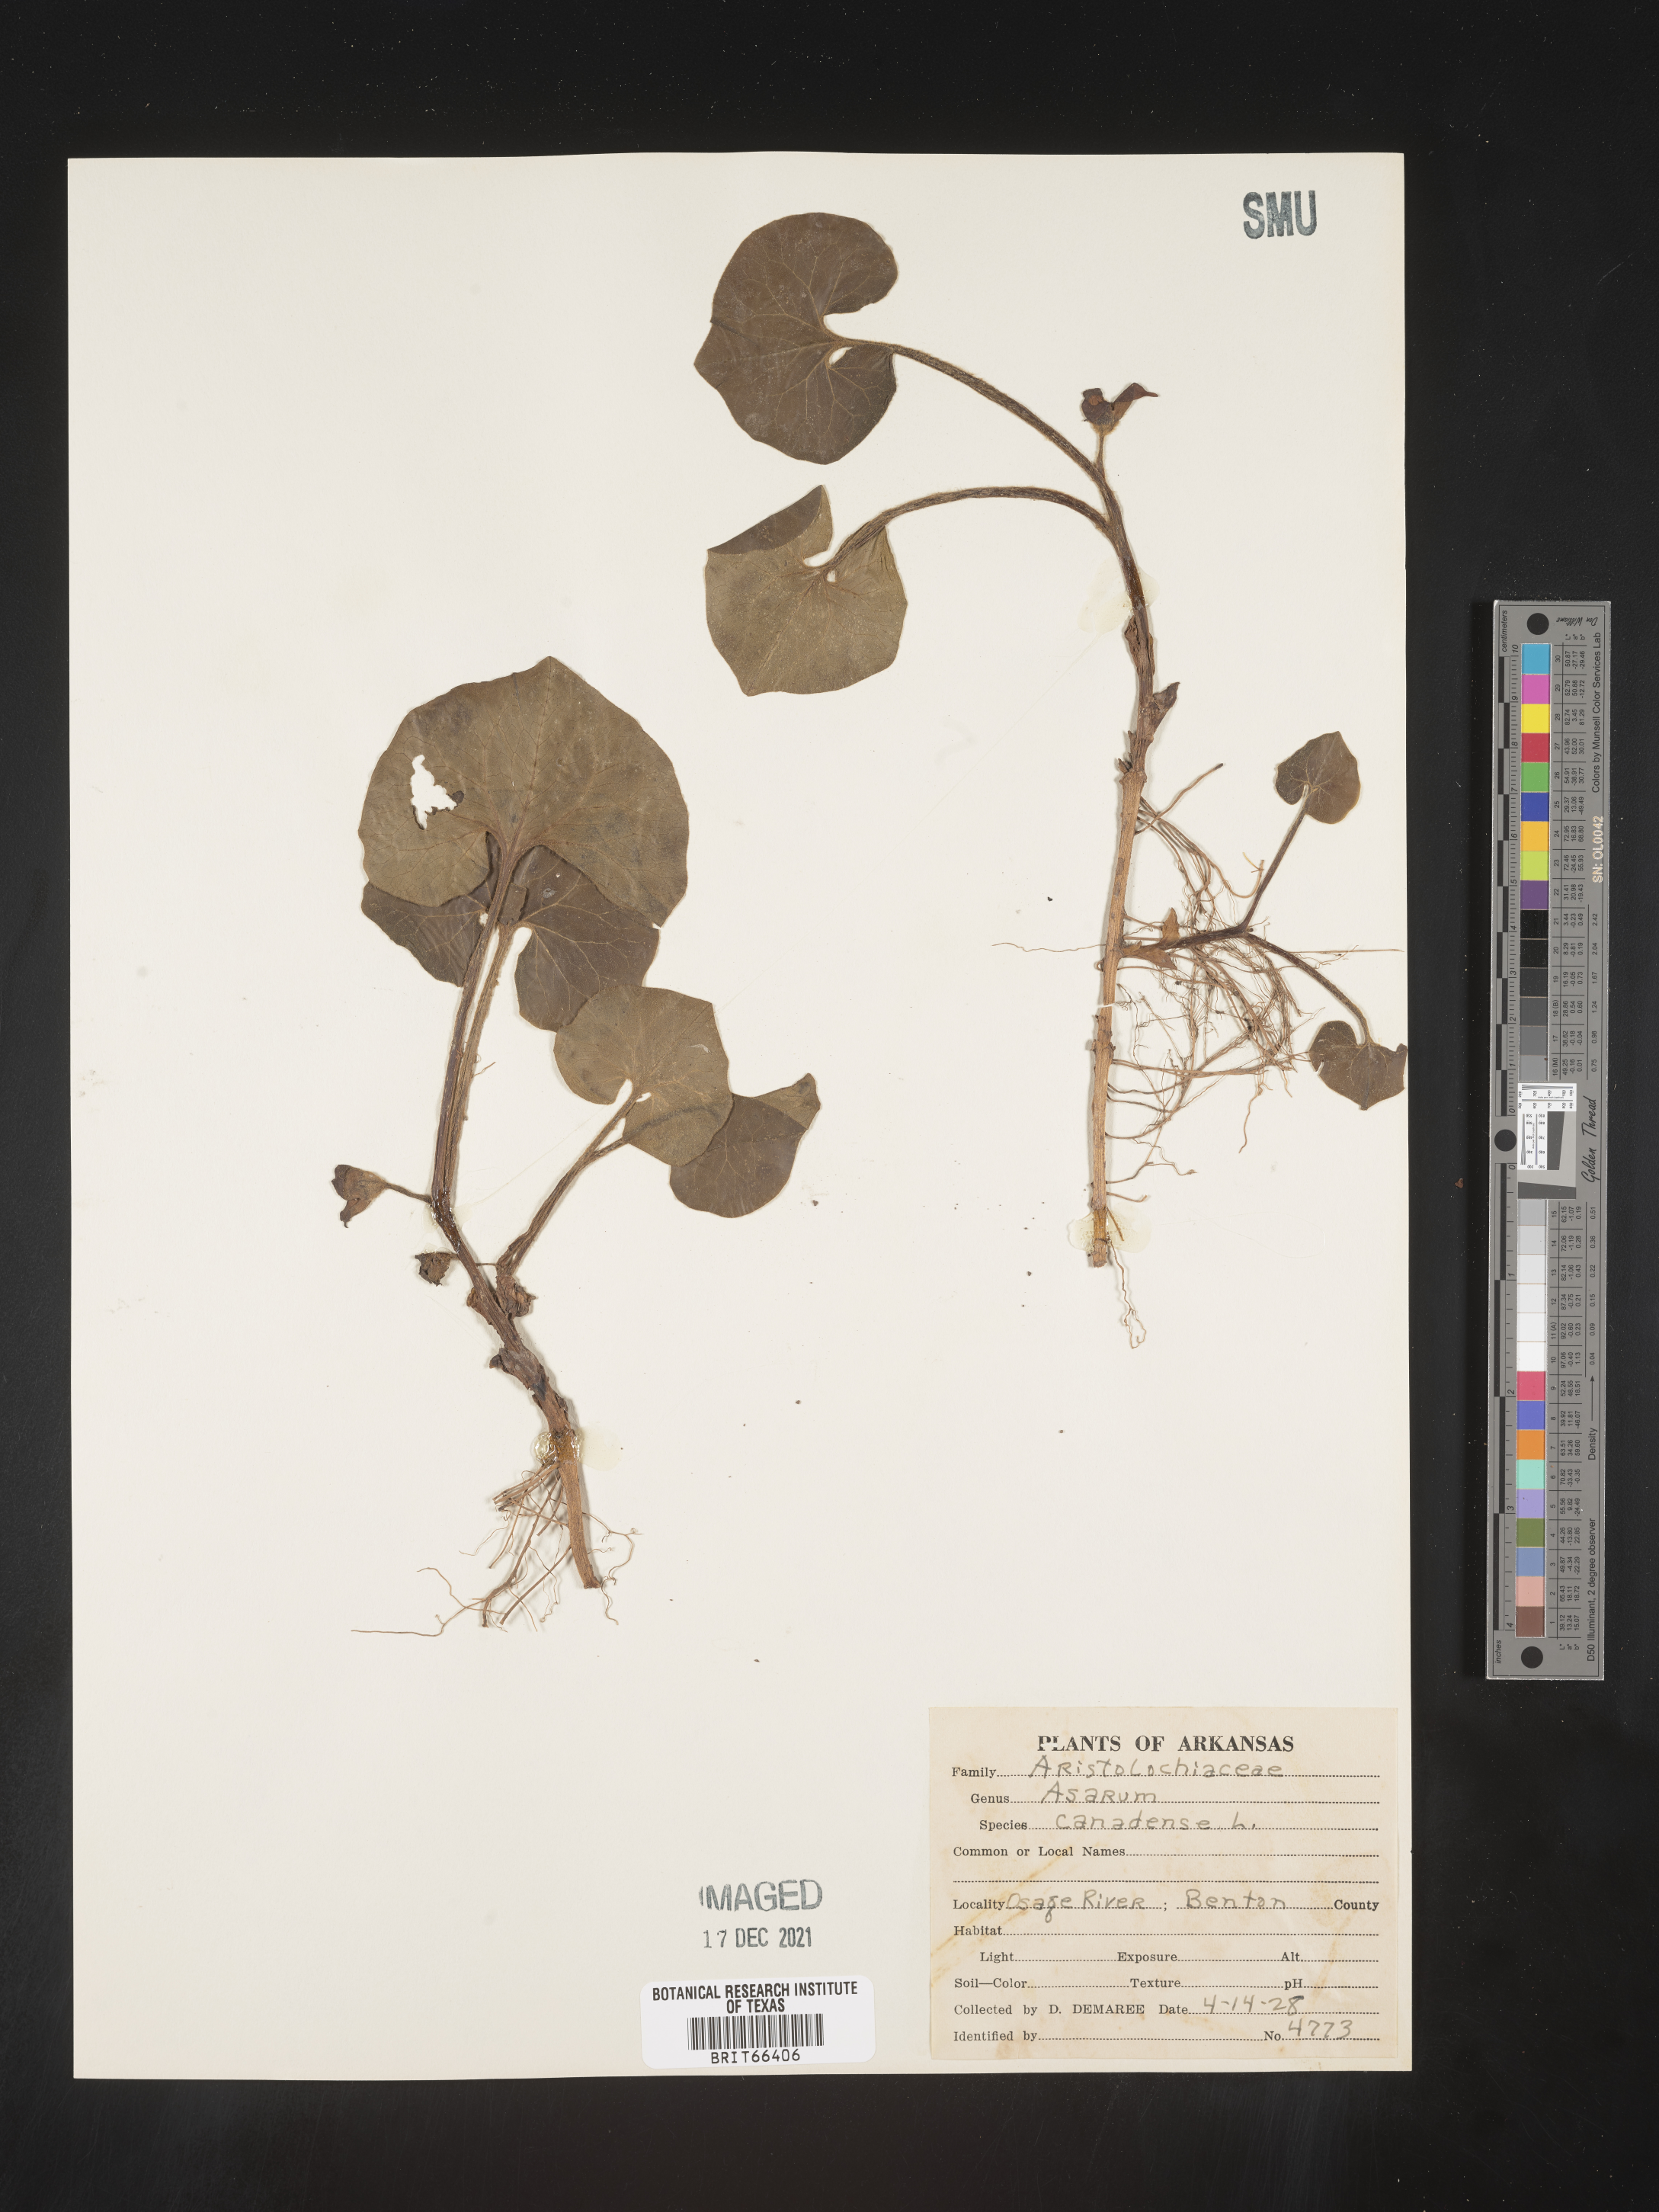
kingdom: Plantae
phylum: Tracheophyta
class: Magnoliopsida
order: Piperales
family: Aristolochiaceae
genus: Asarum
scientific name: Asarum canadense
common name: Wild ginger
